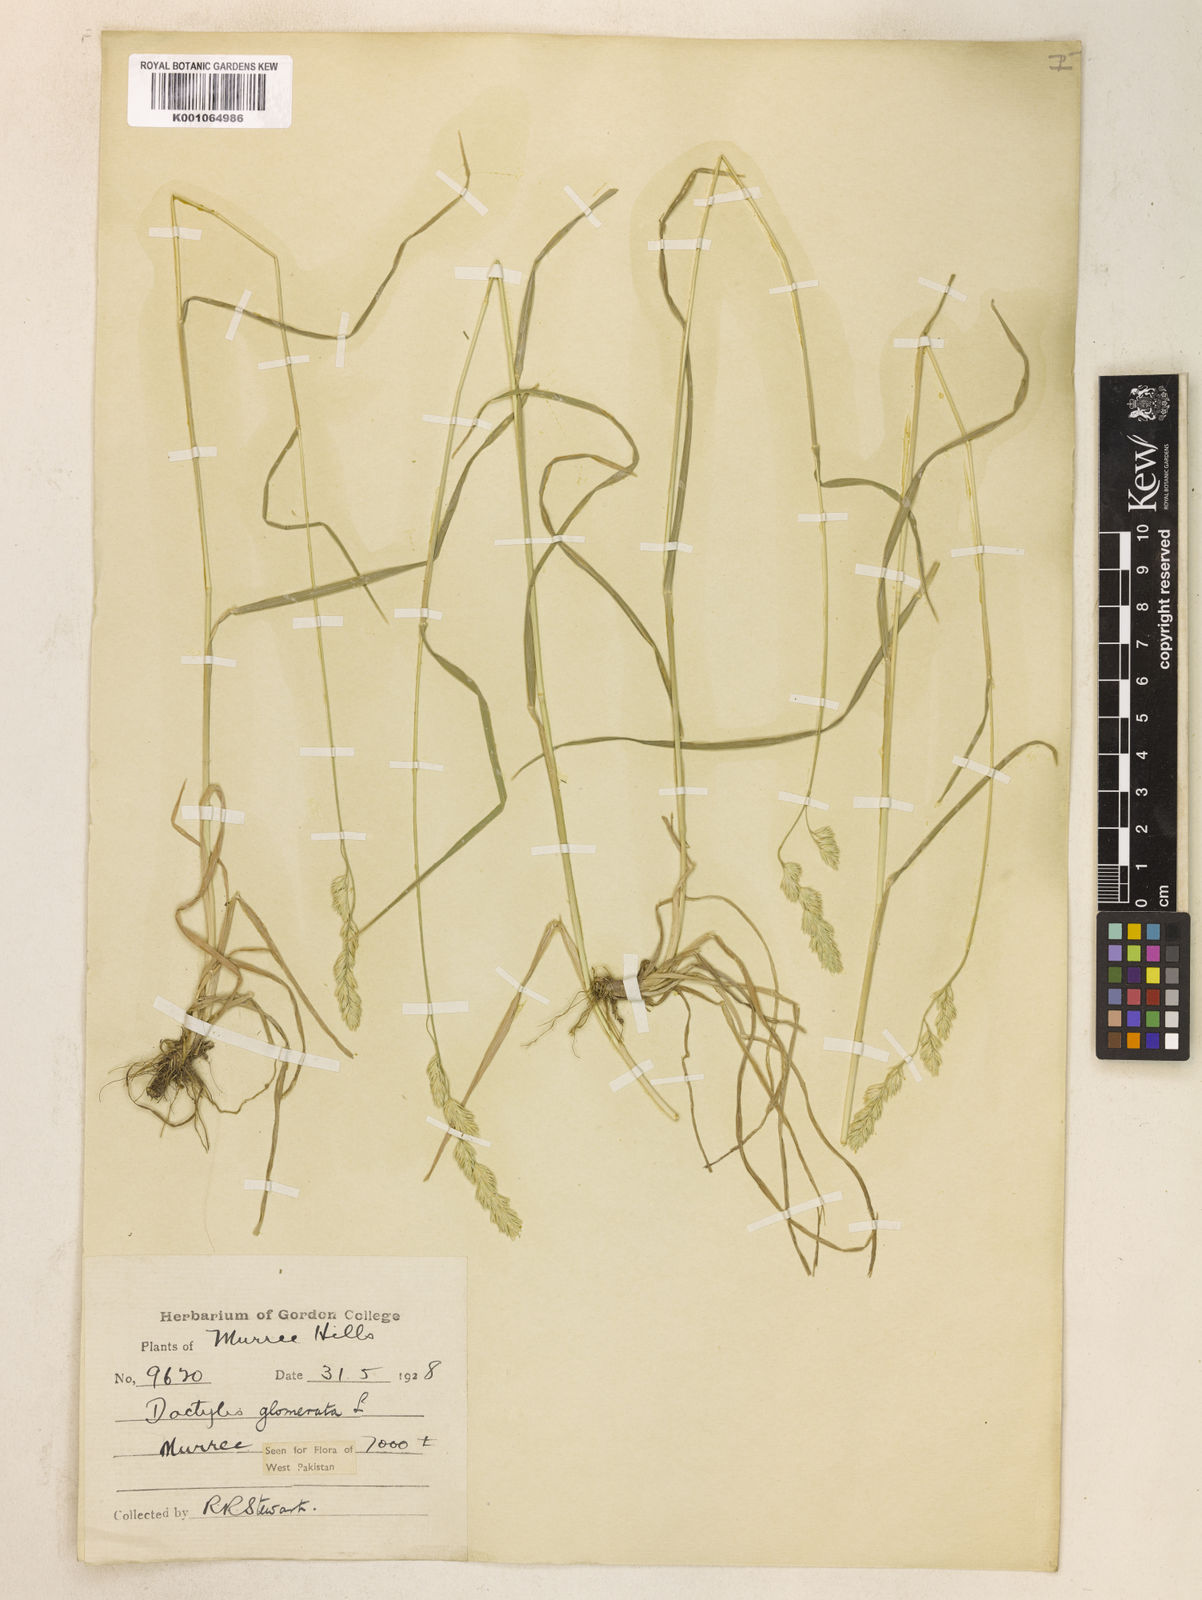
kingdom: Plantae
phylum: Tracheophyta
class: Liliopsida
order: Poales
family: Poaceae
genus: Dactylis
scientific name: Dactylis glomerata
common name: Orchardgrass
